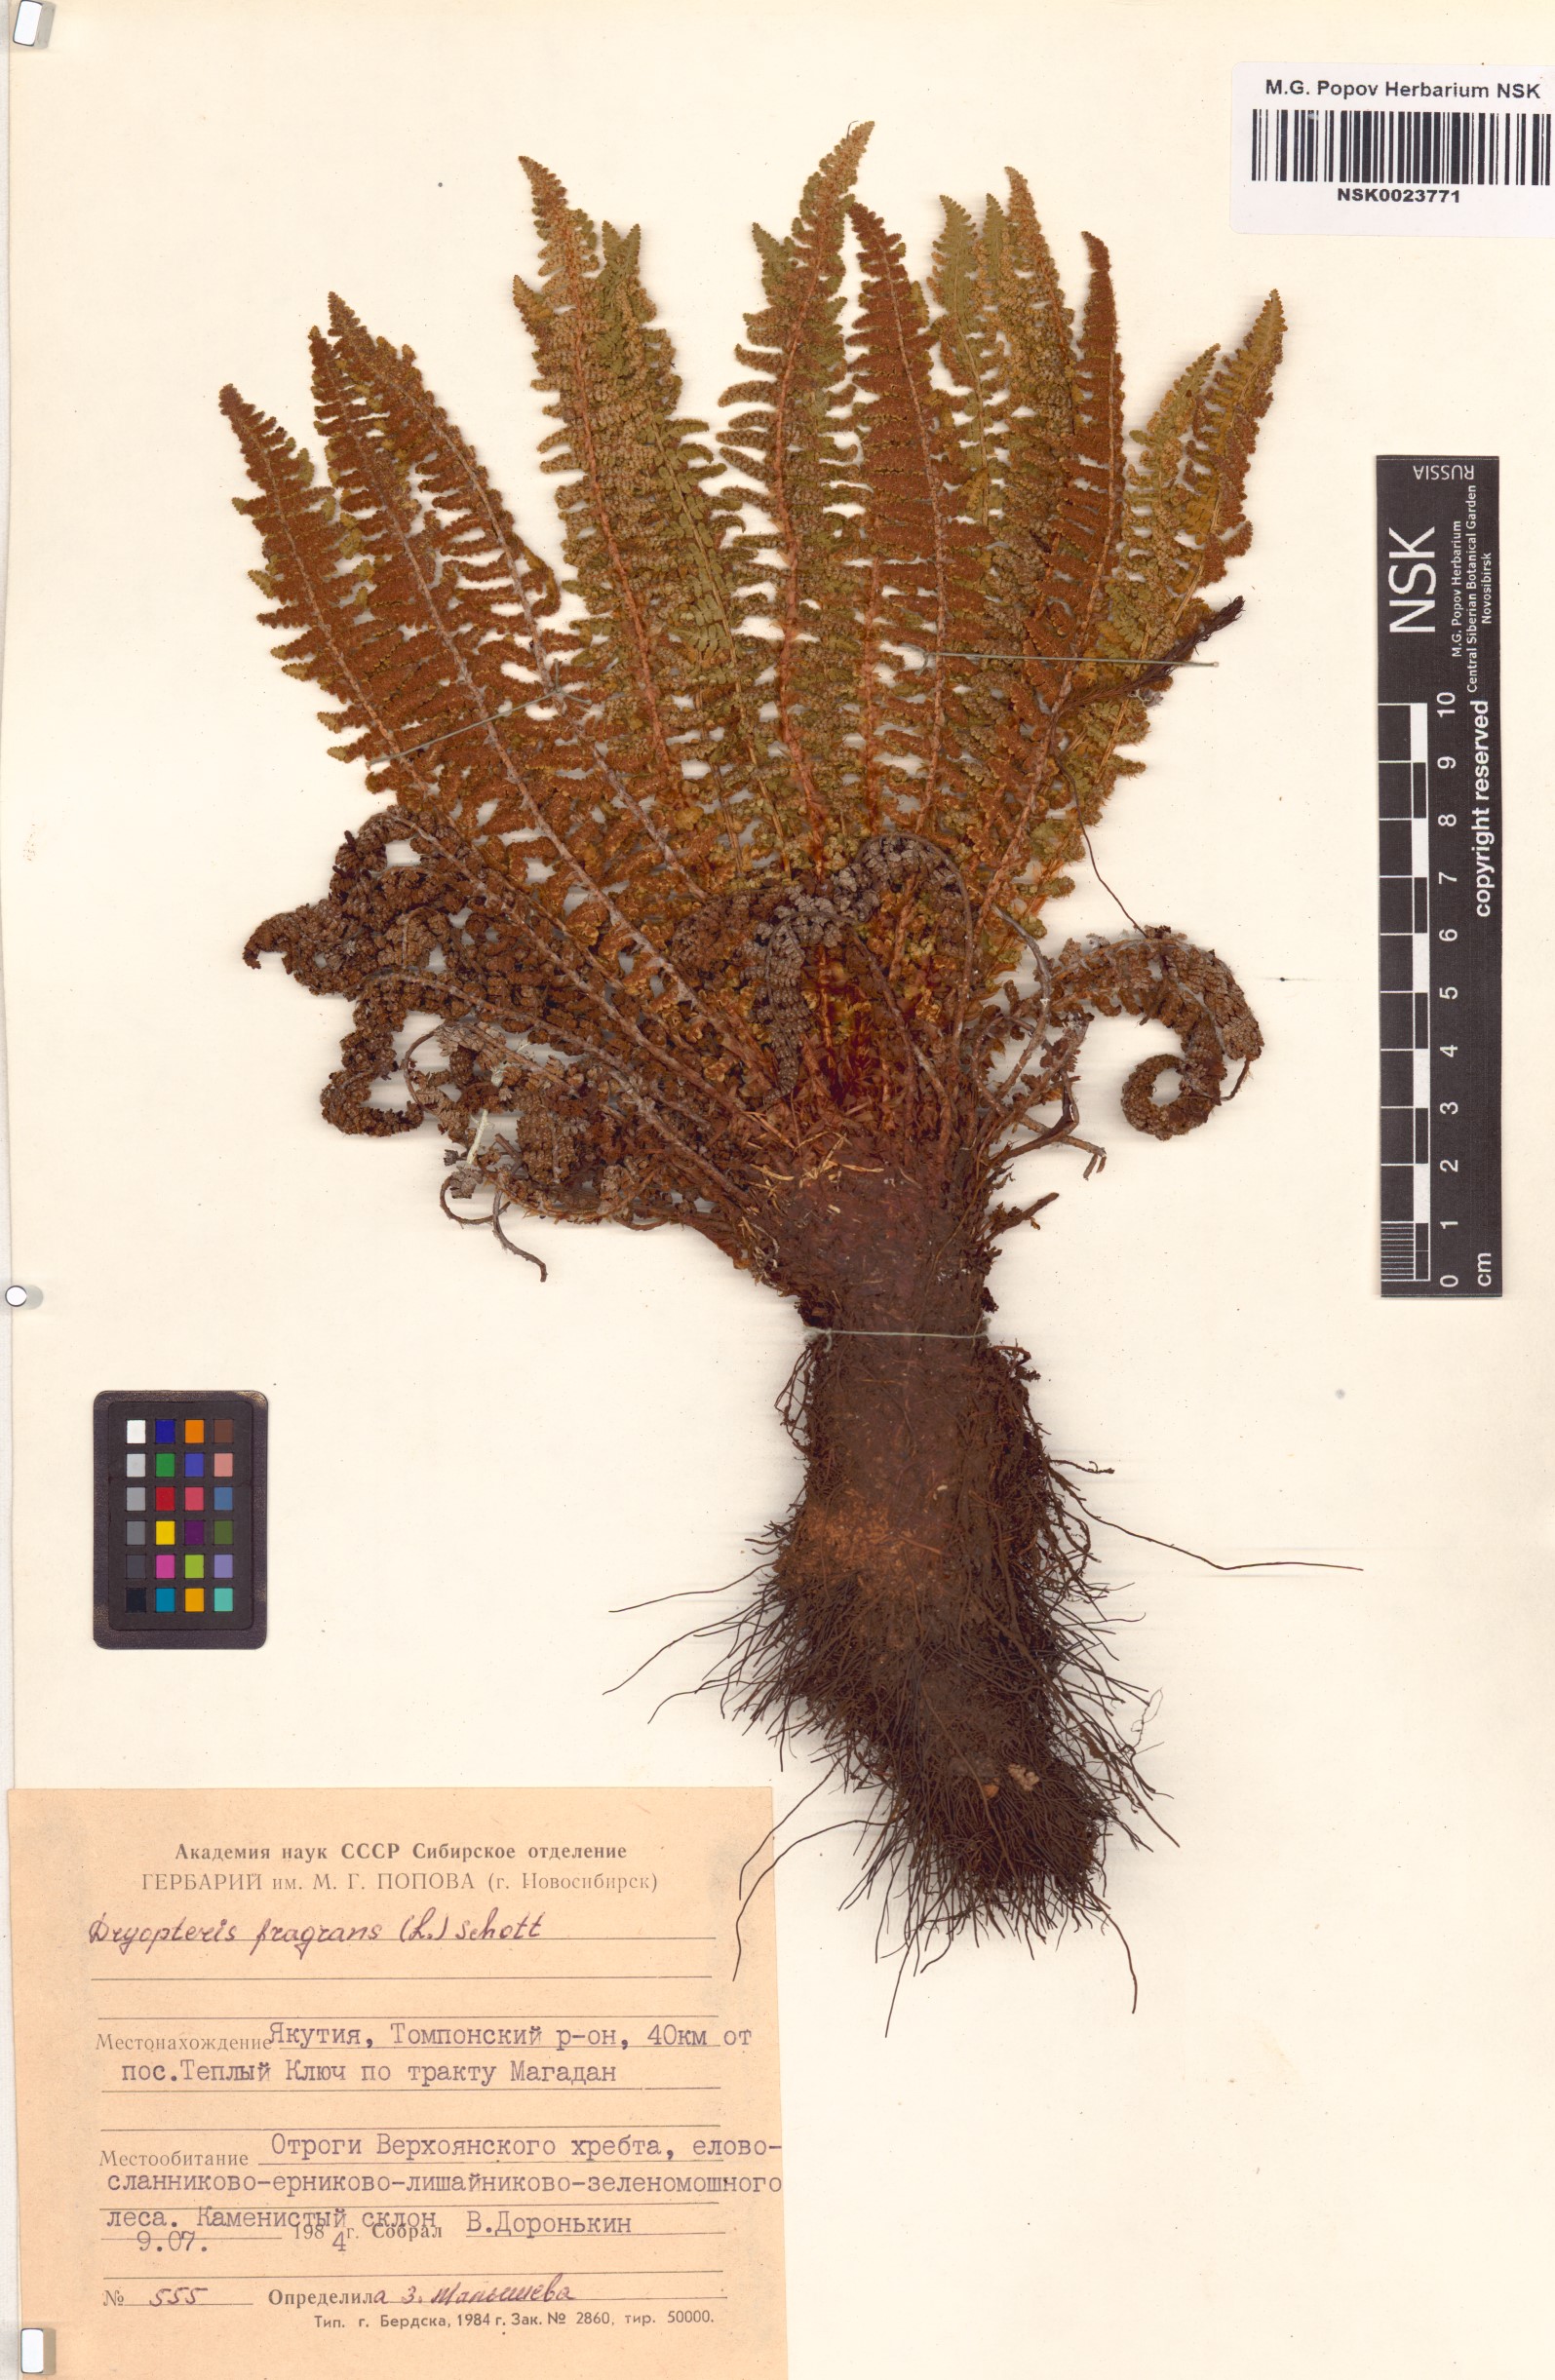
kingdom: Plantae
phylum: Tracheophyta
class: Polypodiopsida
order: Polypodiales
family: Dryopteridaceae
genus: Dryopteris
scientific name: Dryopteris fragrans
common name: Fragrant wood fern
